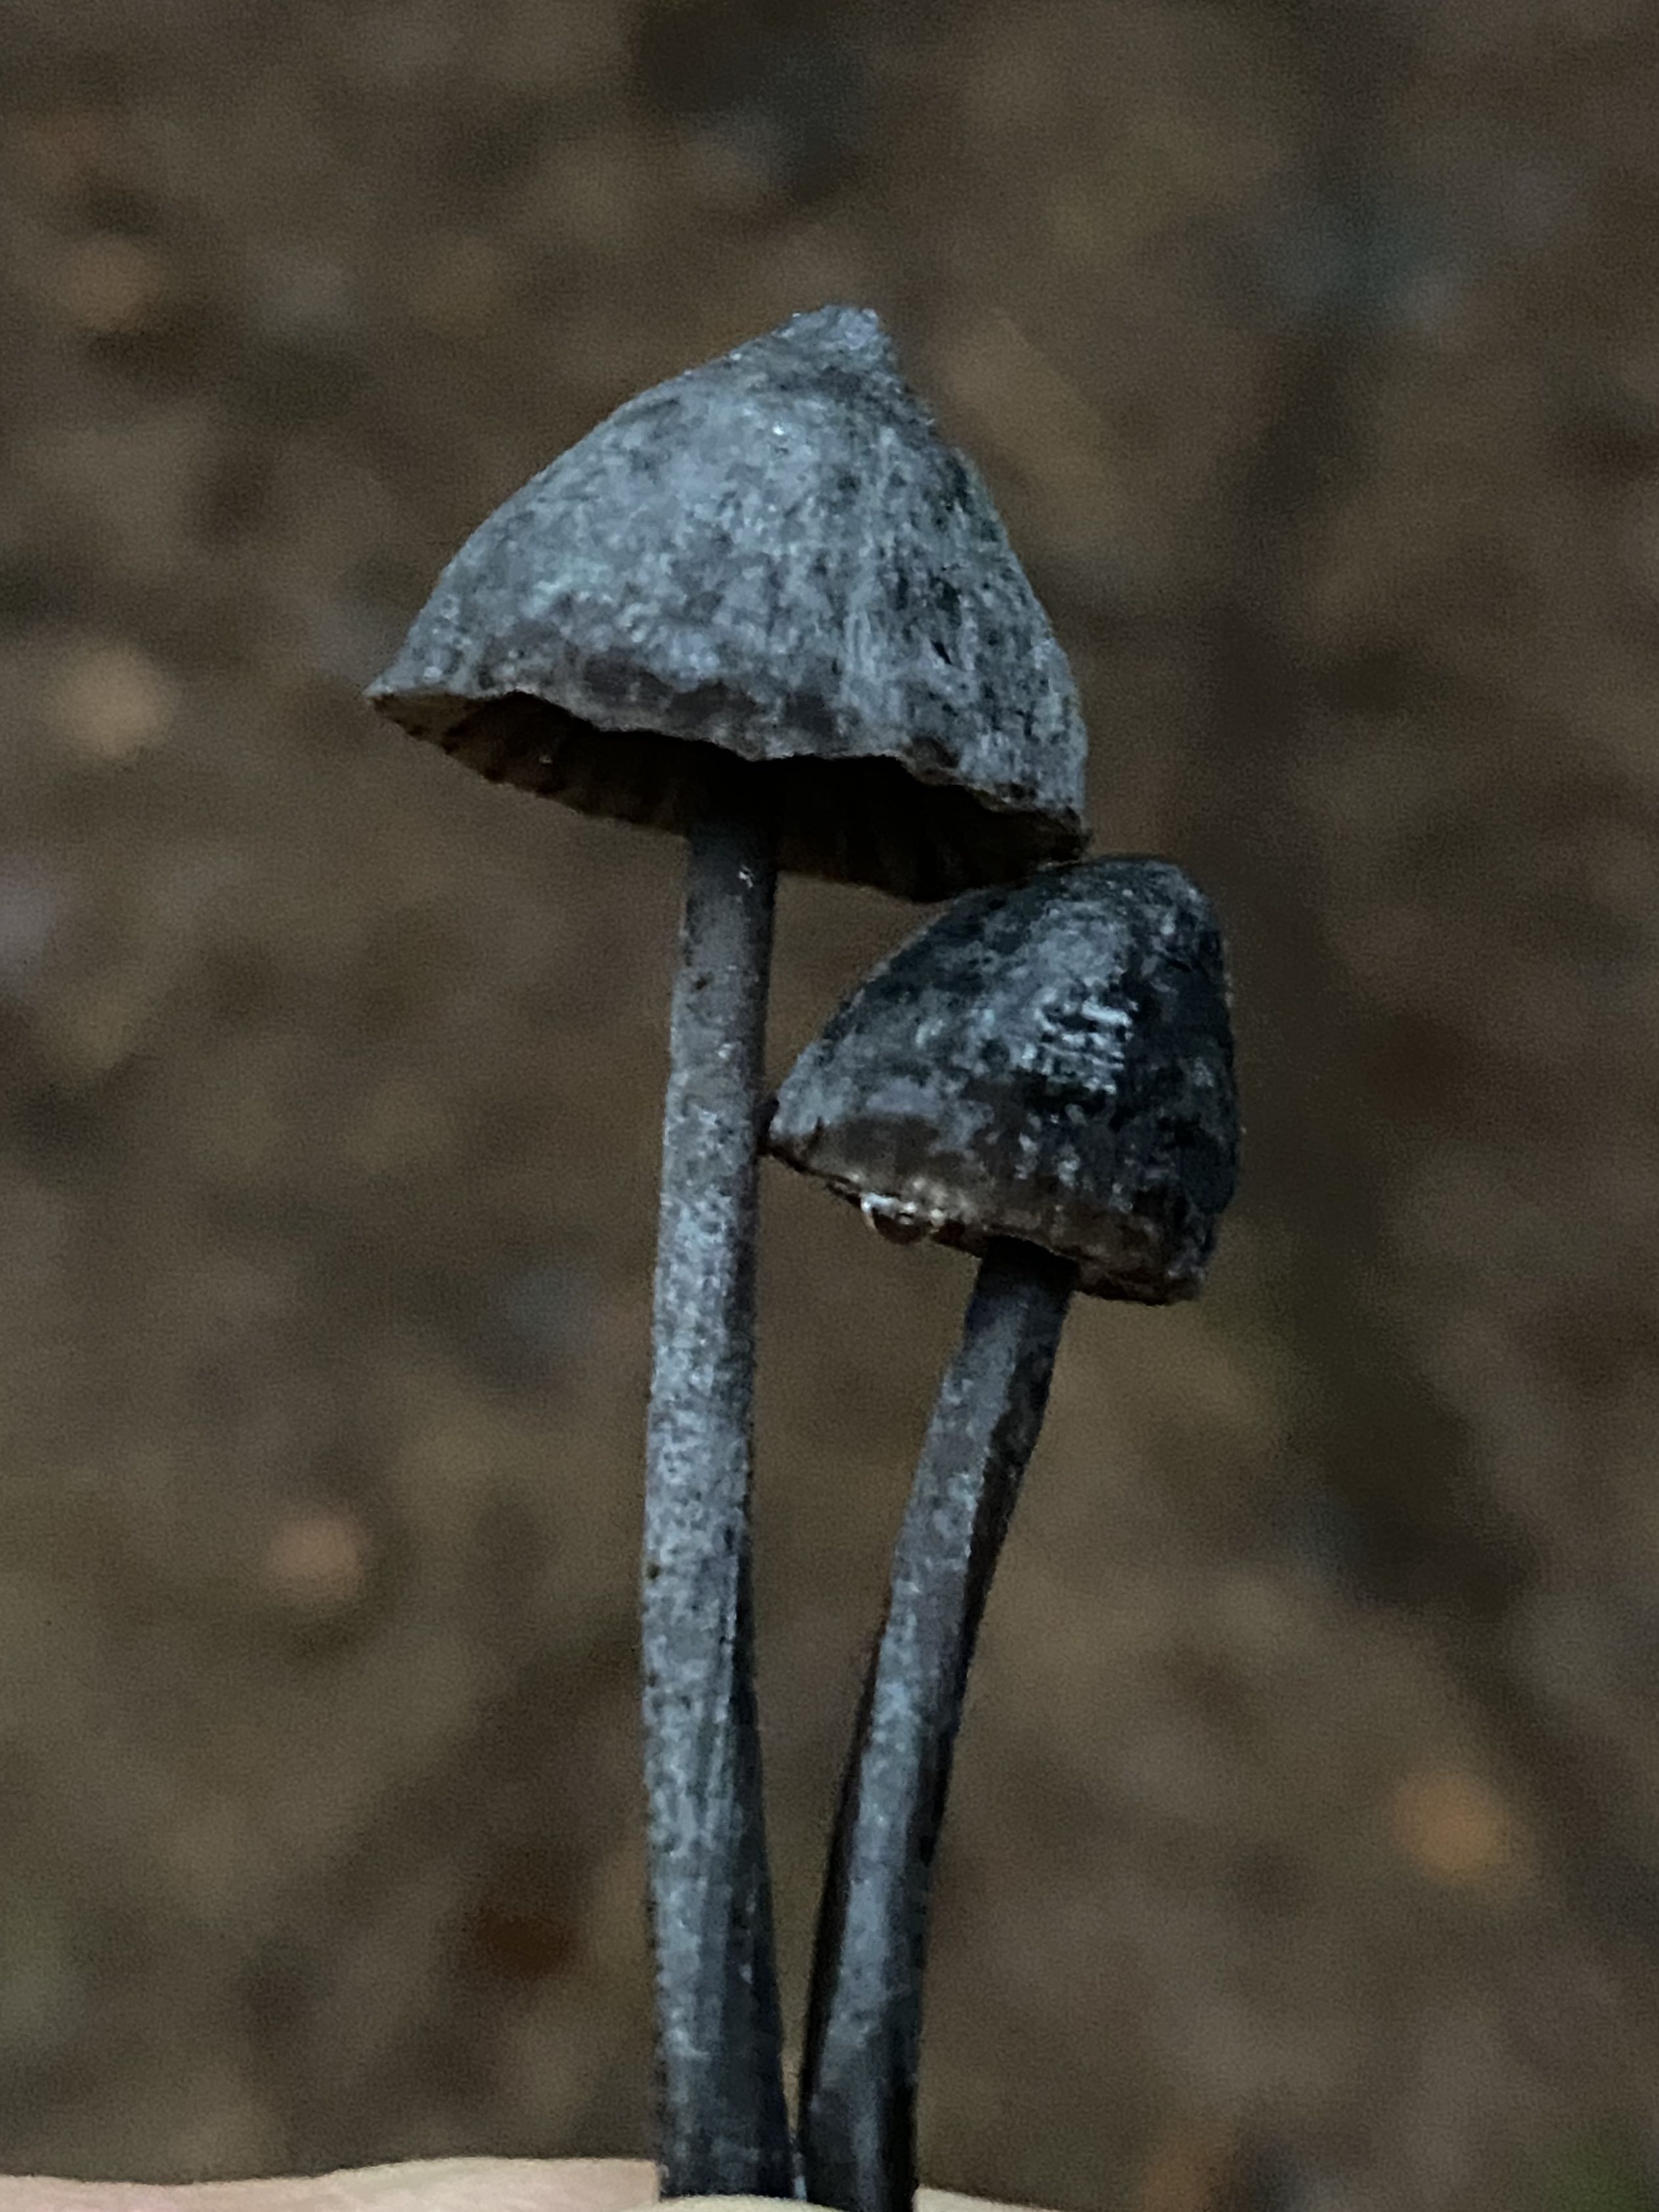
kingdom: Fungi
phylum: Basidiomycota
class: Agaricomycetes
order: Agaricales
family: Mycenaceae
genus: Mycena
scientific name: Mycena galopus
